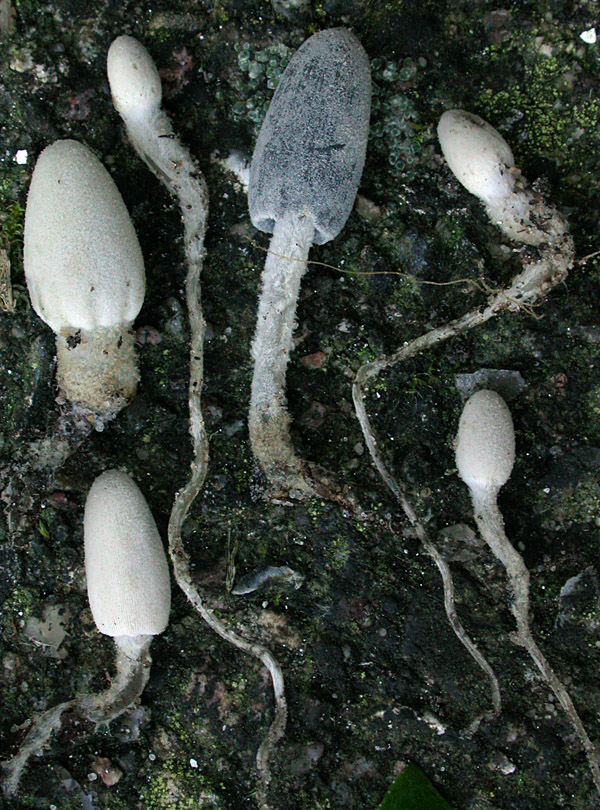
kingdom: Fungi
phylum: Basidiomycota
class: Agaricomycetes
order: Agaricales
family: Psathyrellaceae
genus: Coprinopsis
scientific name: Coprinopsis tuberosa
